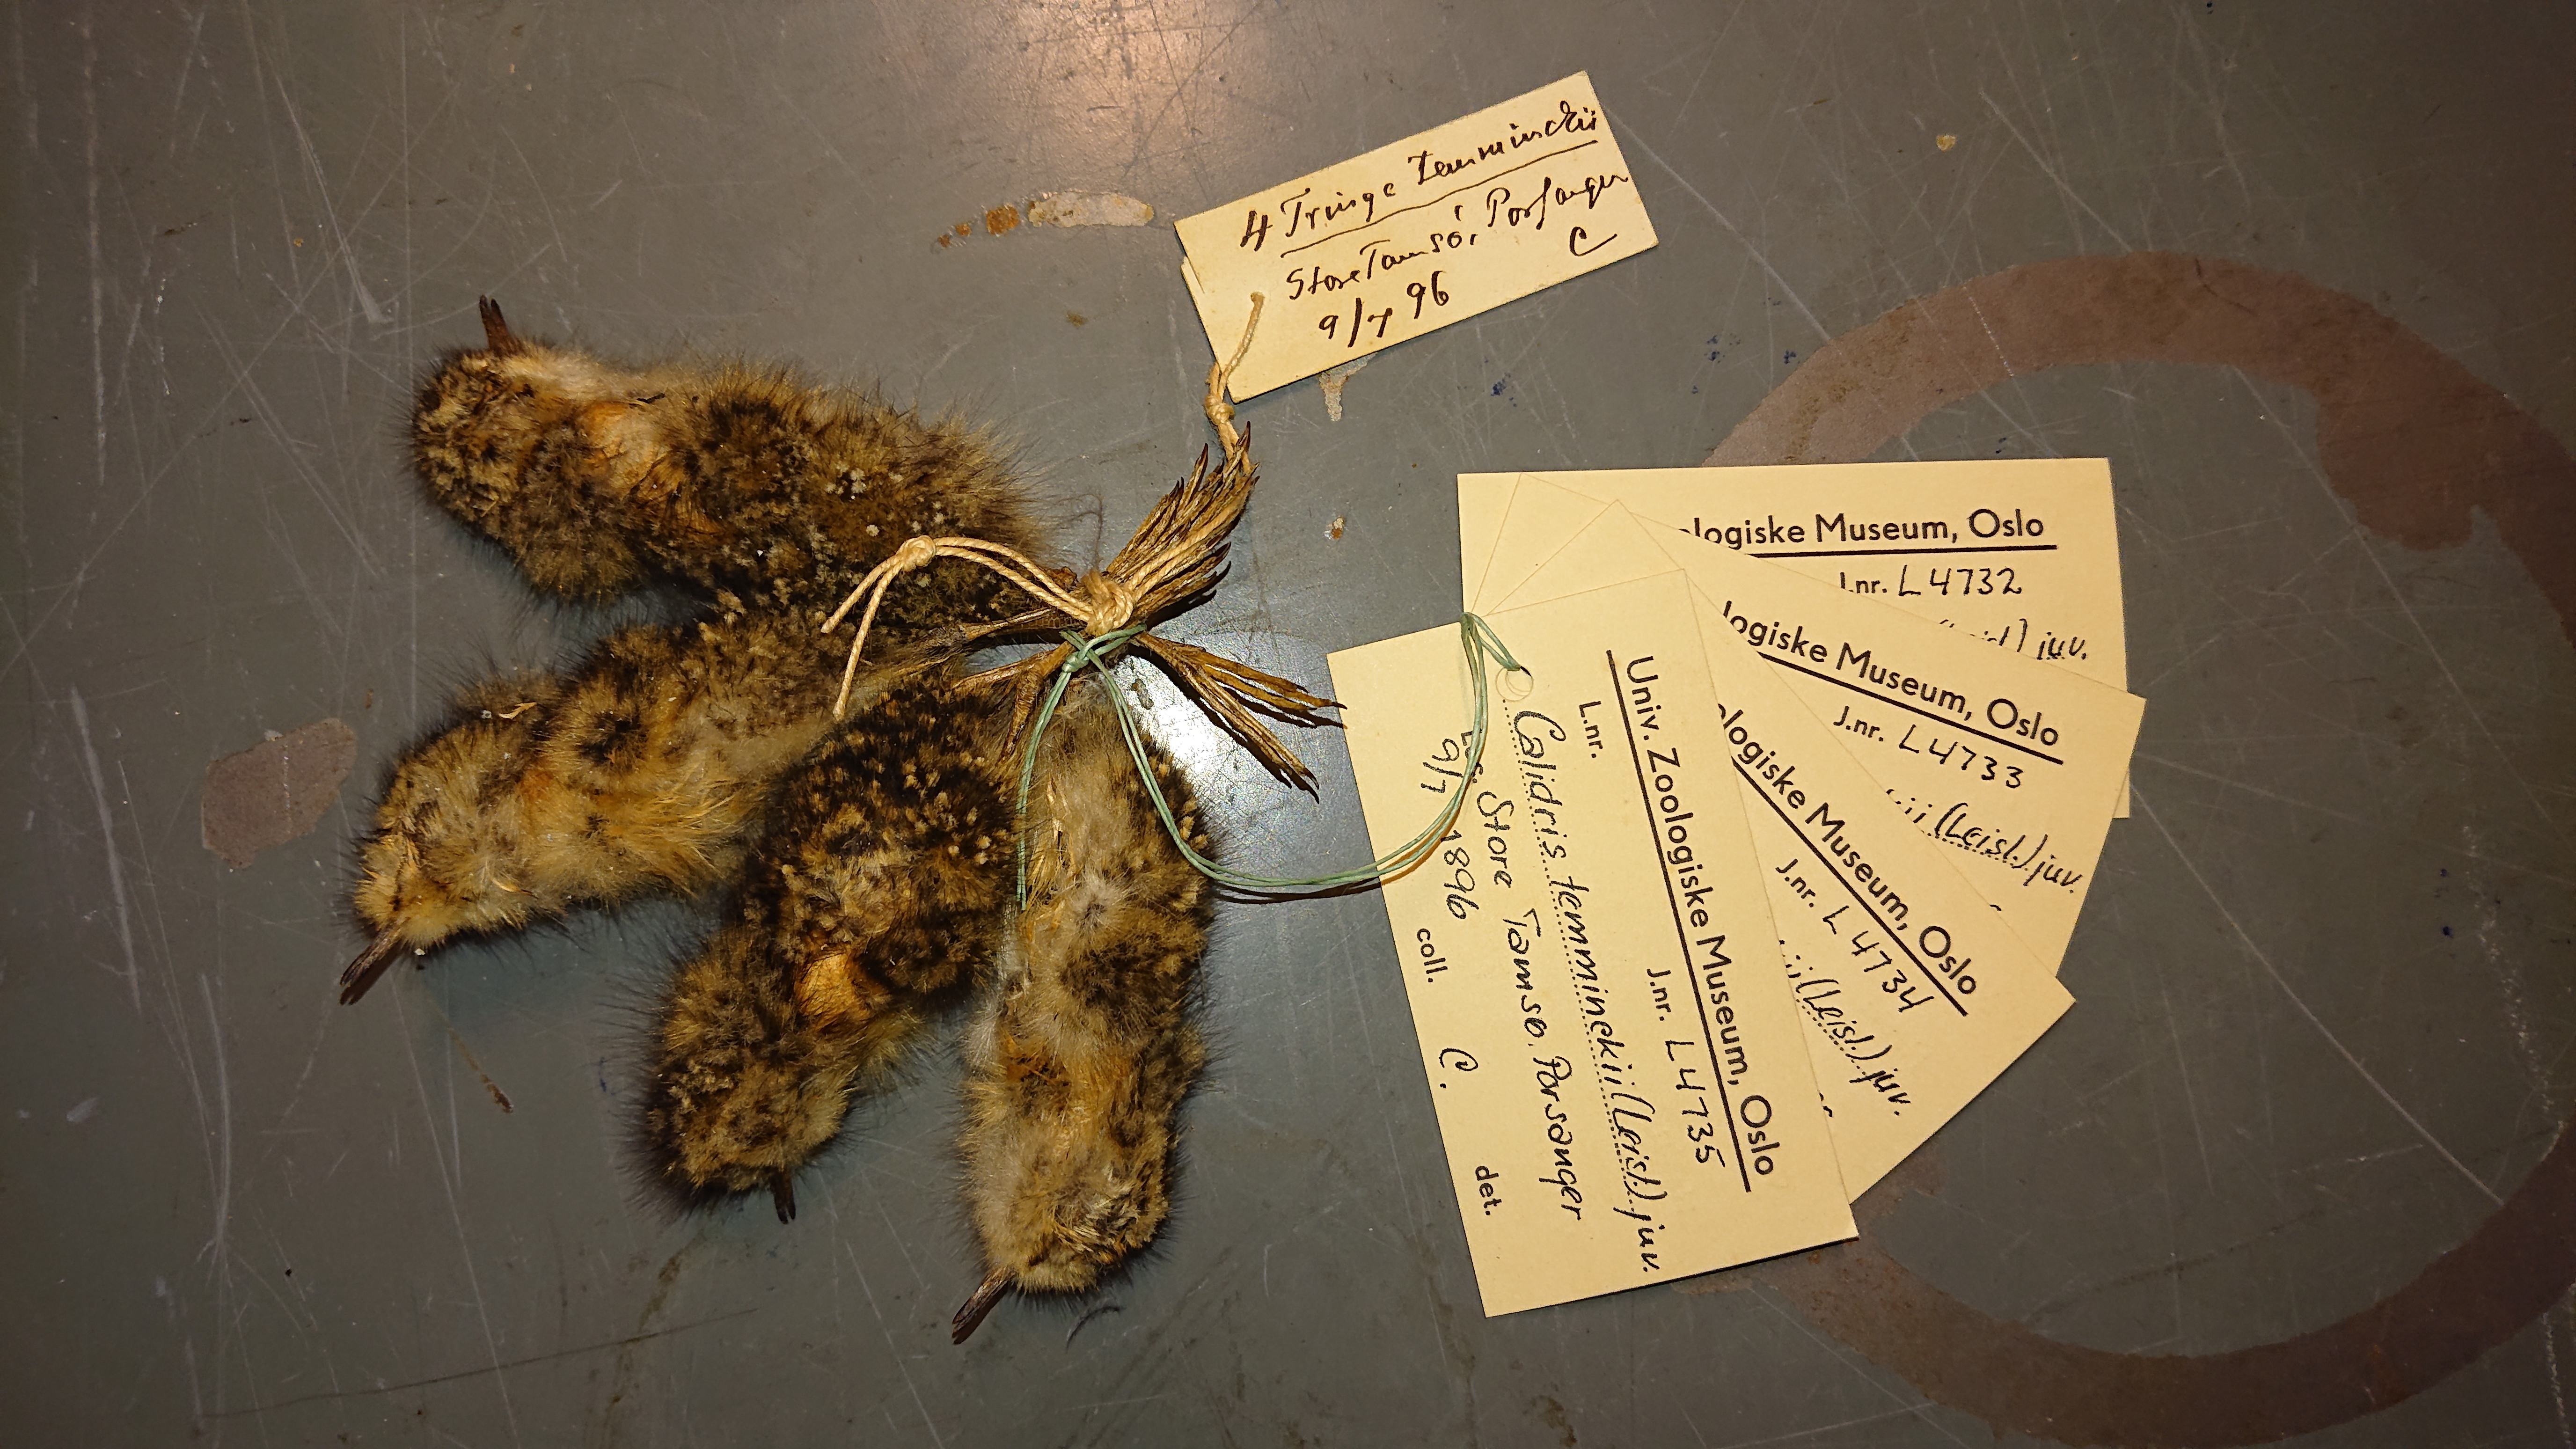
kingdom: Animalia
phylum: Chordata
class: Aves
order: Charadriiformes
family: Scolopacidae
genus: Calidris
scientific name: Calidris temminckii
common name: Temminck's stint
